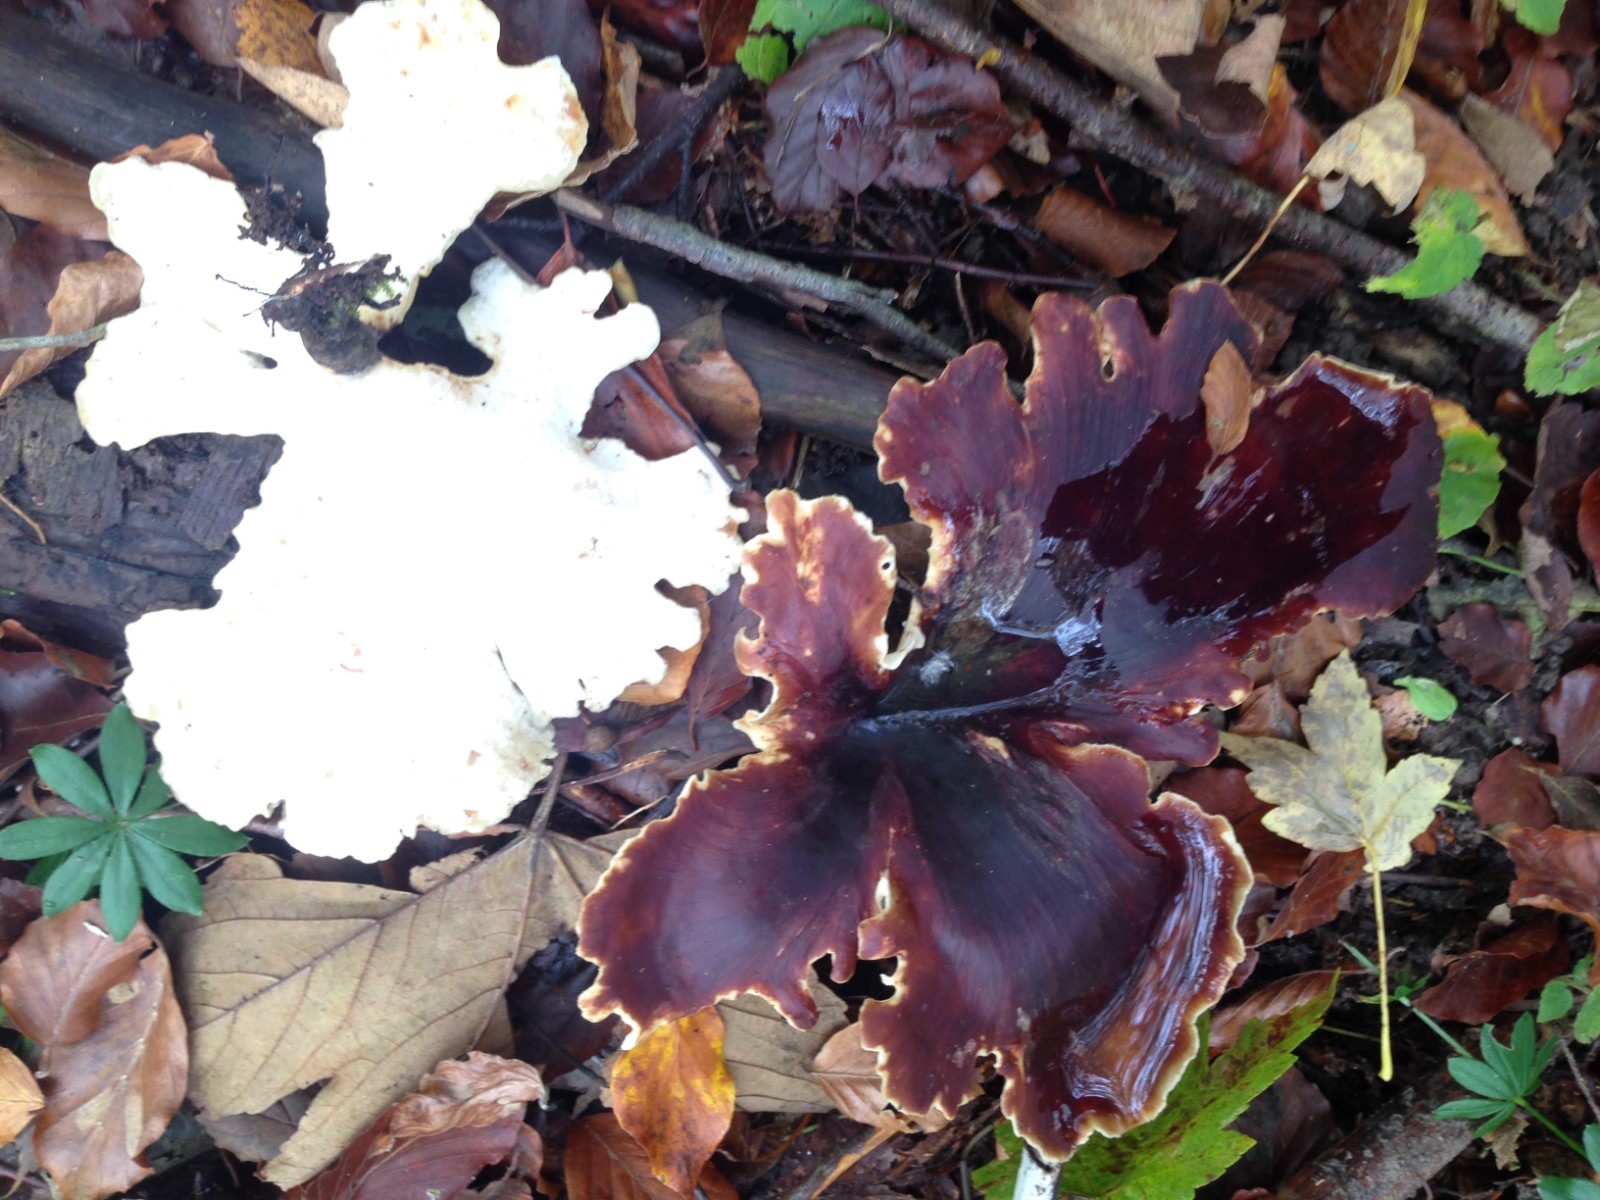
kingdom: Fungi
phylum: Basidiomycota
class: Agaricomycetes
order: Polyporales
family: Polyporaceae
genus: Picipes
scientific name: Picipes badius
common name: kastaniebrun stilkporesvamp
